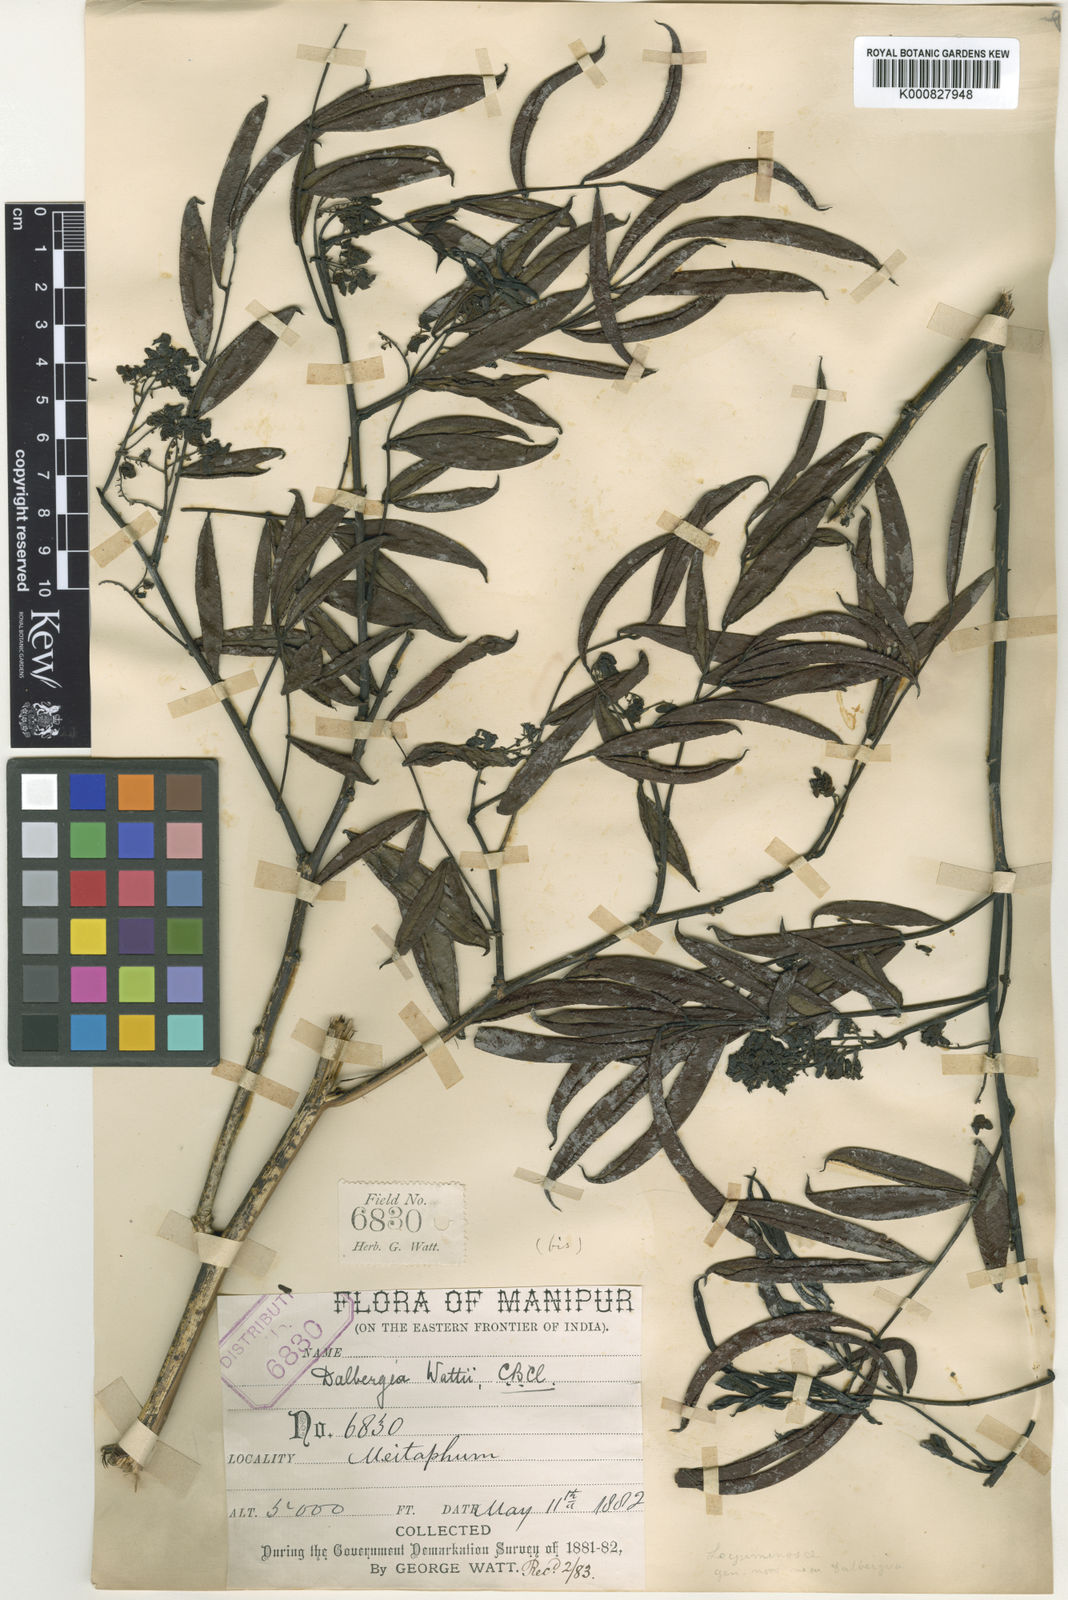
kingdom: Plantae
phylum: Tracheophyta
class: Magnoliopsida
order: Fabales
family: Fabaceae
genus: Dalbergia
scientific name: Dalbergia wattii
